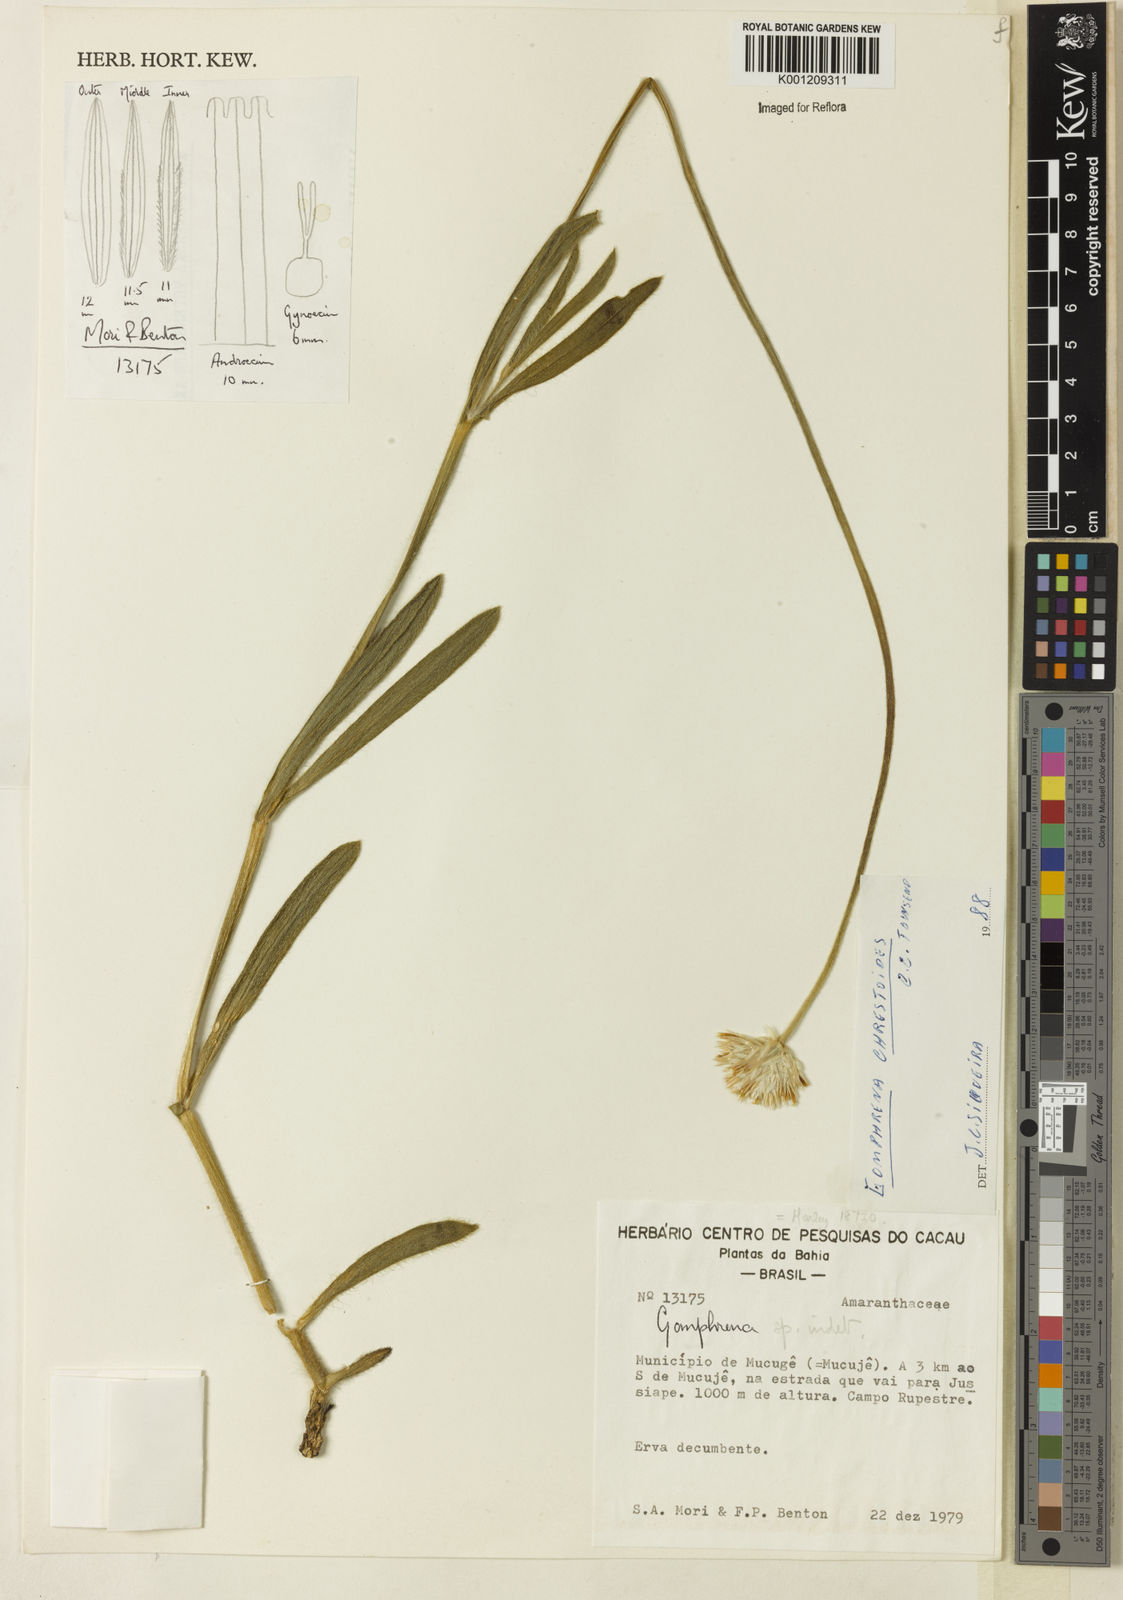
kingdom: Plantae
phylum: Tracheophyta
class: Magnoliopsida
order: Caryophyllales
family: Amaranthaceae
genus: Gomphrena
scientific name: Gomphrena chrestoides
